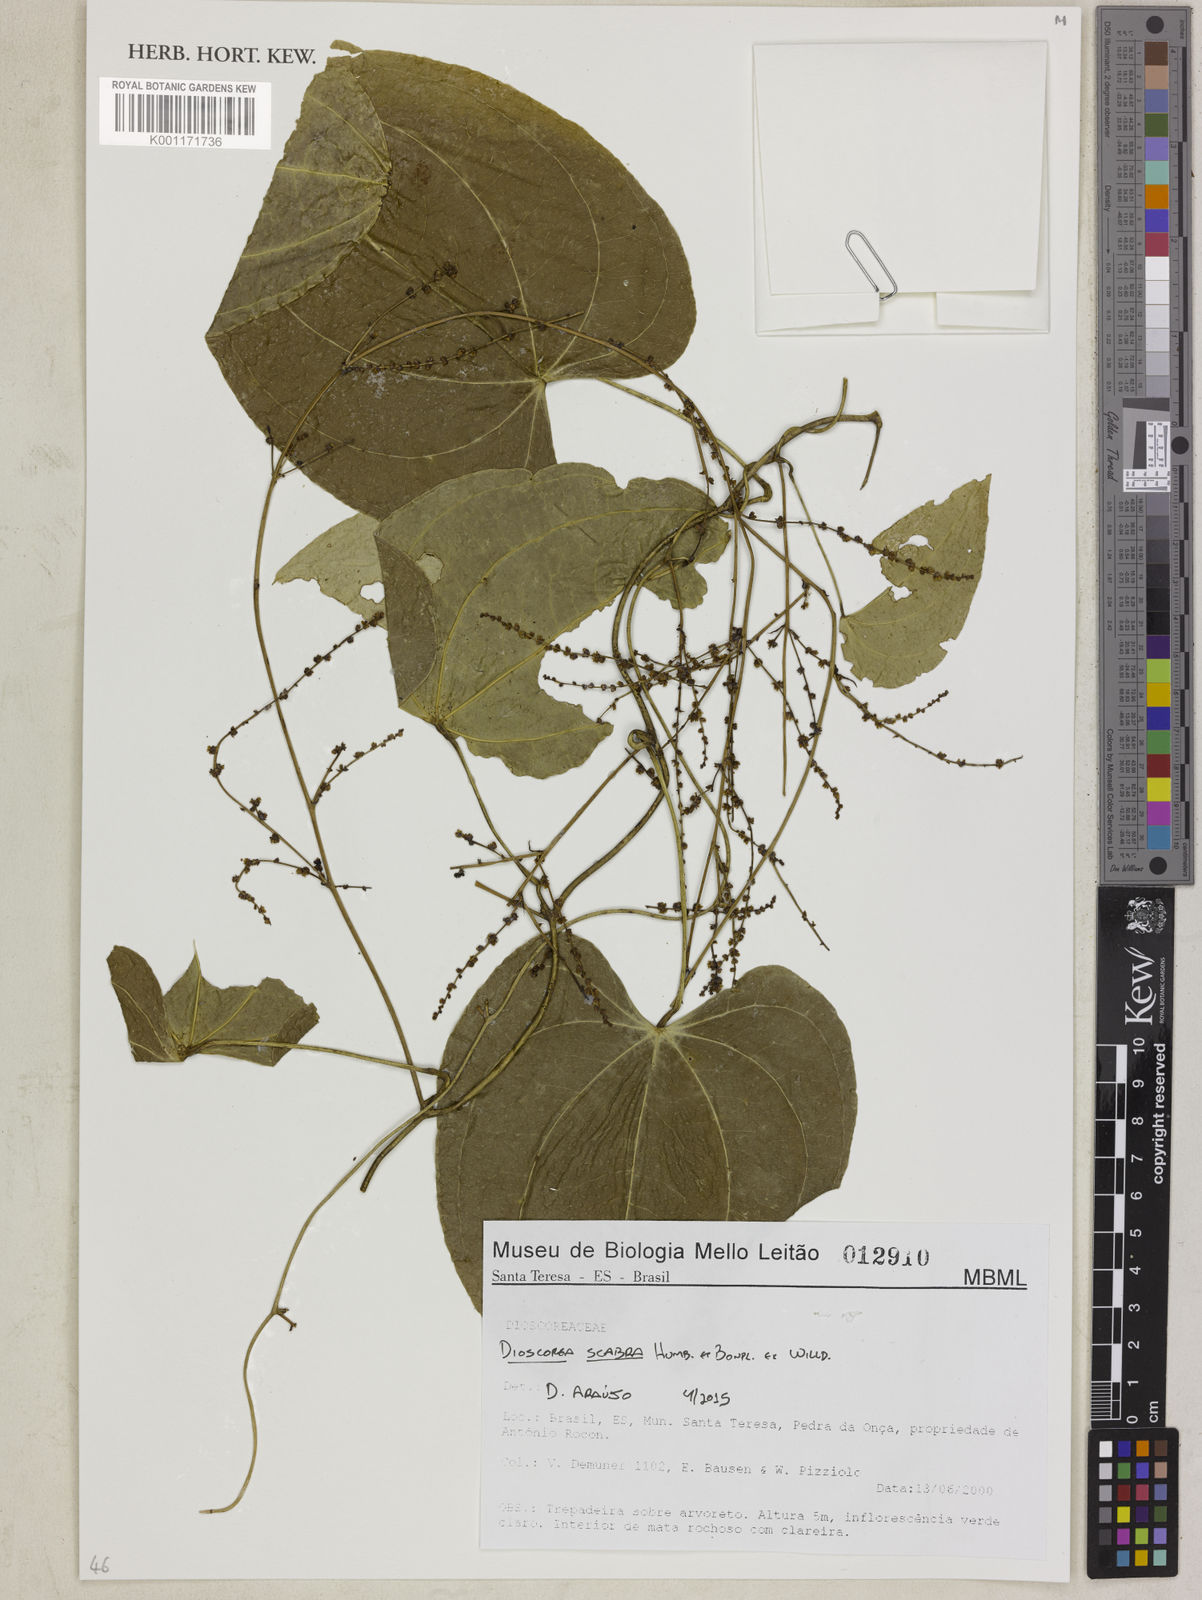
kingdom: Plantae
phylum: Tracheophyta
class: Liliopsida
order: Dioscoreales
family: Dioscoreaceae
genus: Dioscorea
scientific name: Dioscorea scabra
